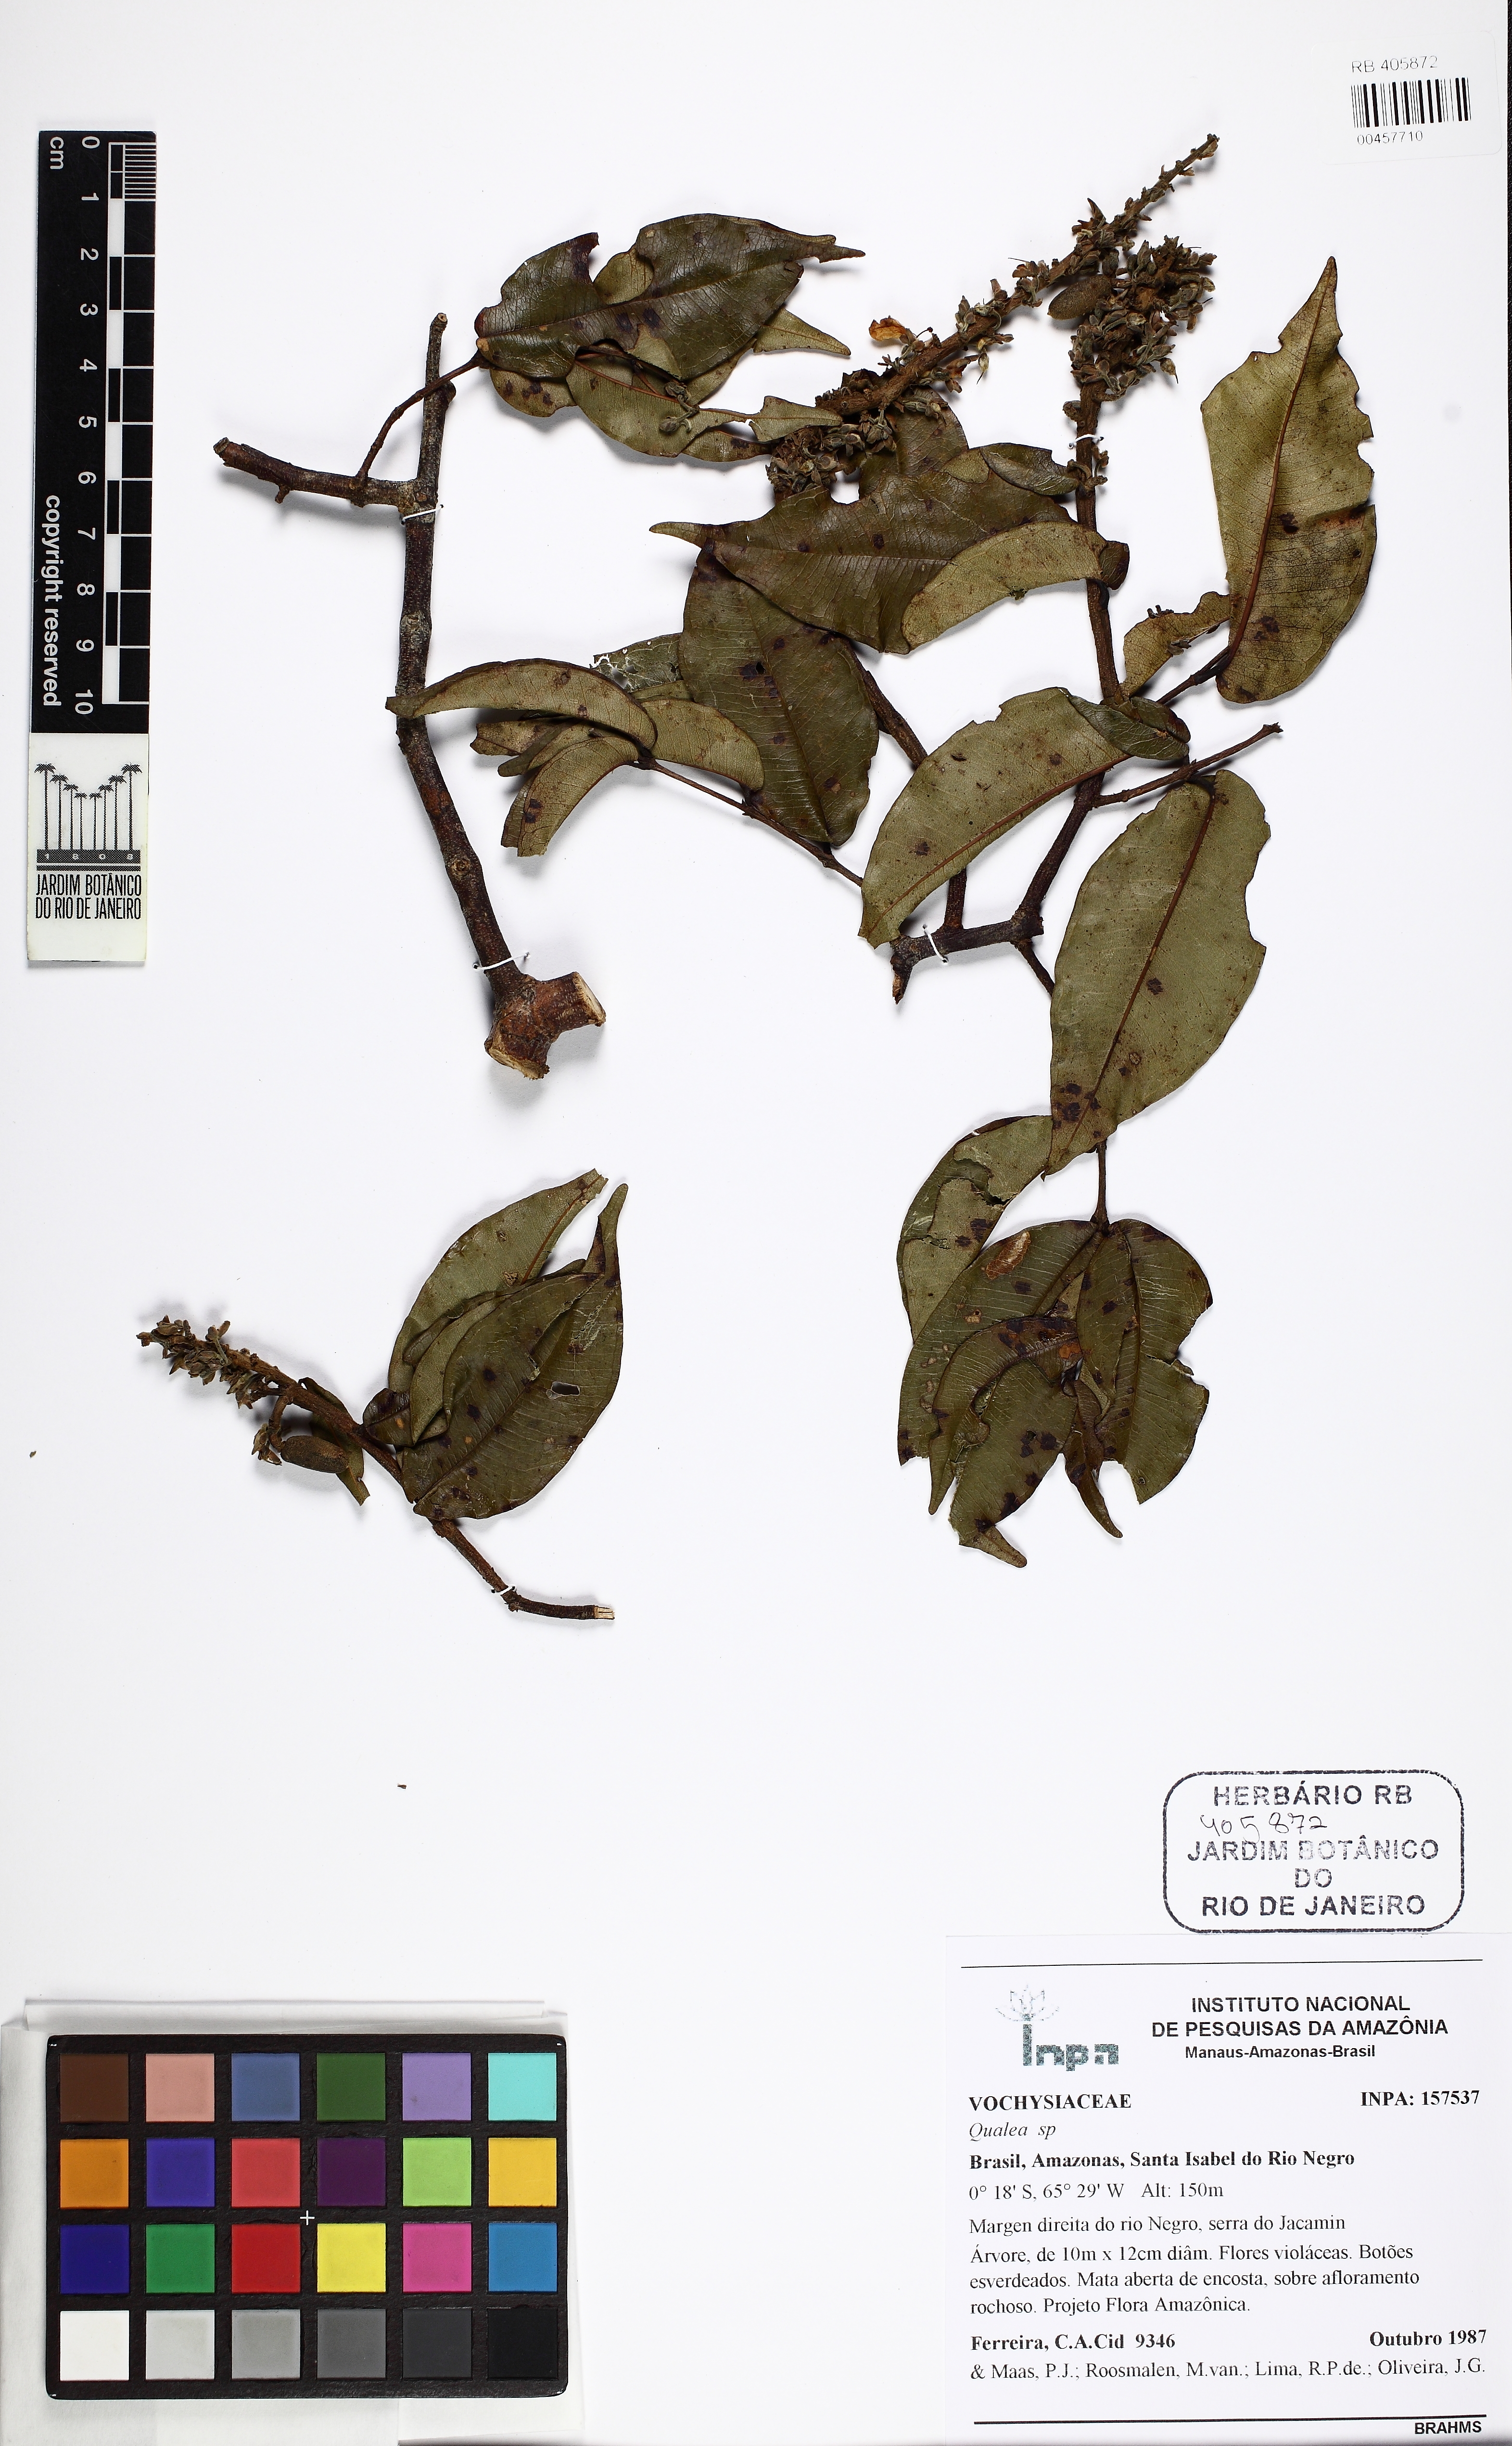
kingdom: Plantae
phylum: Tracheophyta
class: Magnoliopsida
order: Myrtales
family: Vochysiaceae
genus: Qualea
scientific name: Qualea
